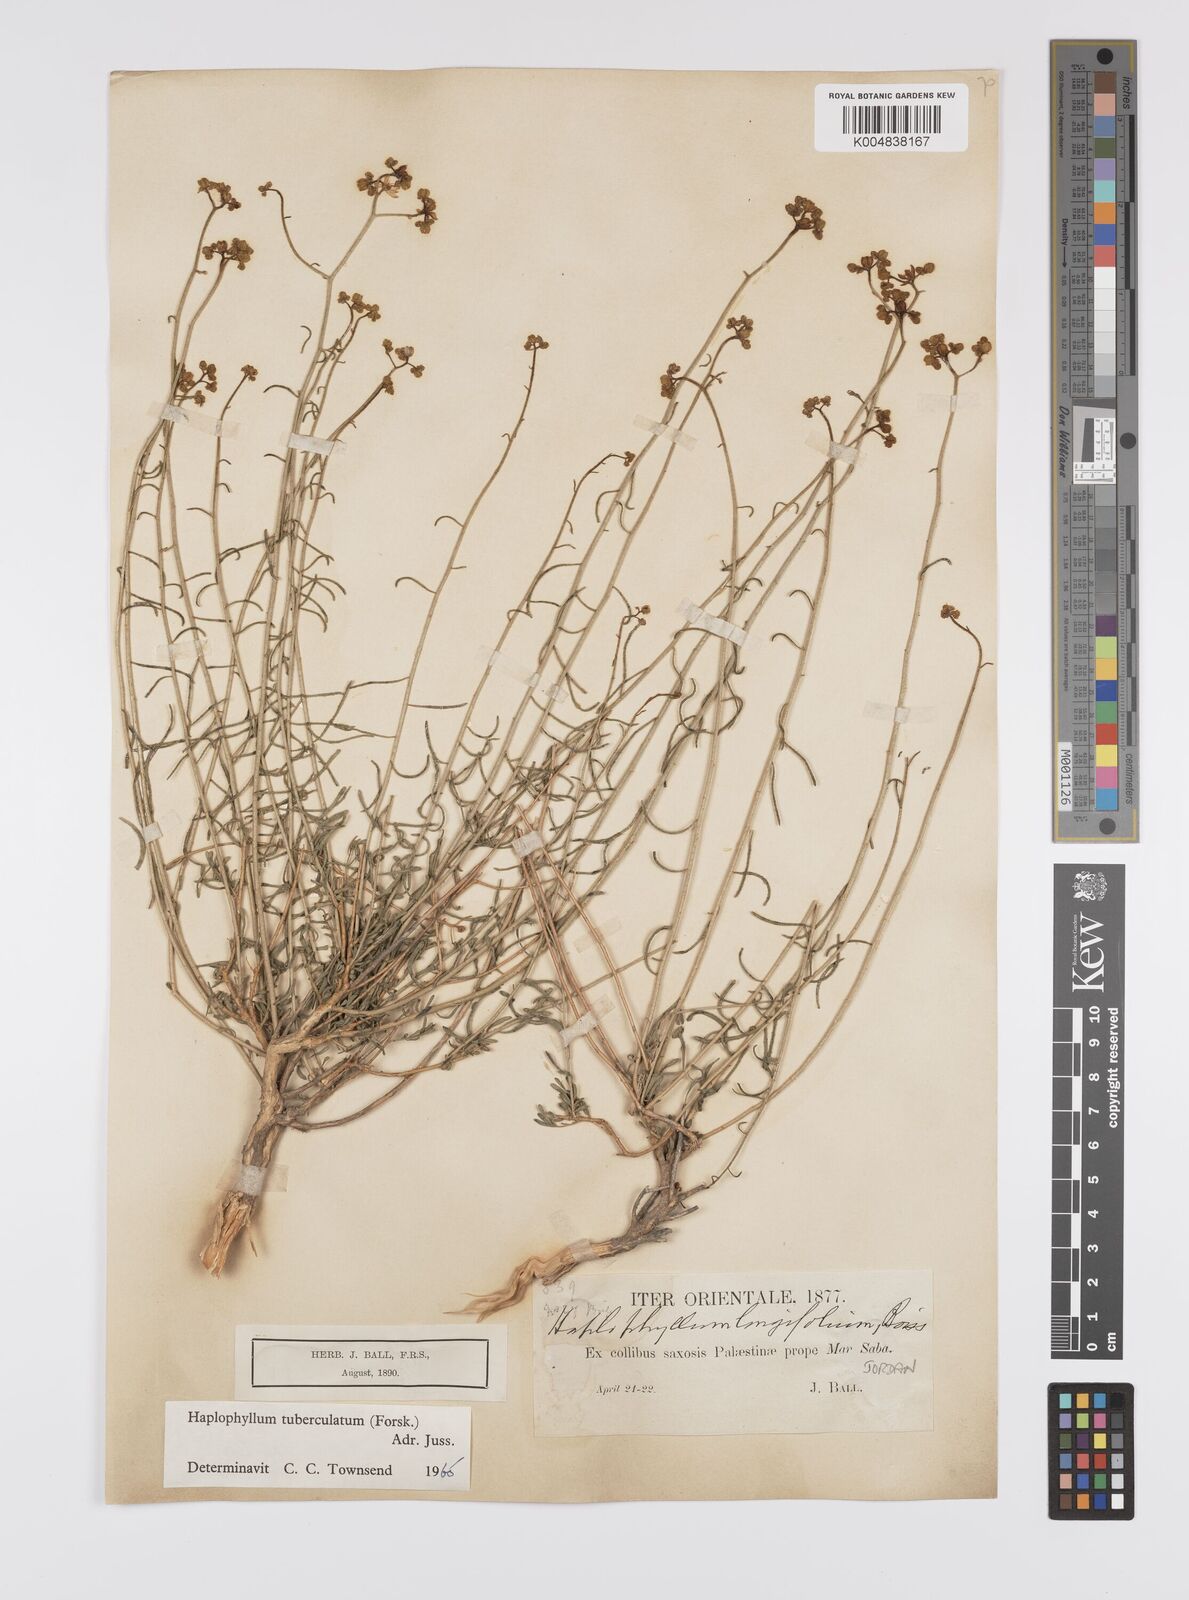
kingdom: Plantae
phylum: Tracheophyta
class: Magnoliopsida
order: Sapindales
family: Rutaceae
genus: Haplophyllum
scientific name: Haplophyllum tuberculatum
